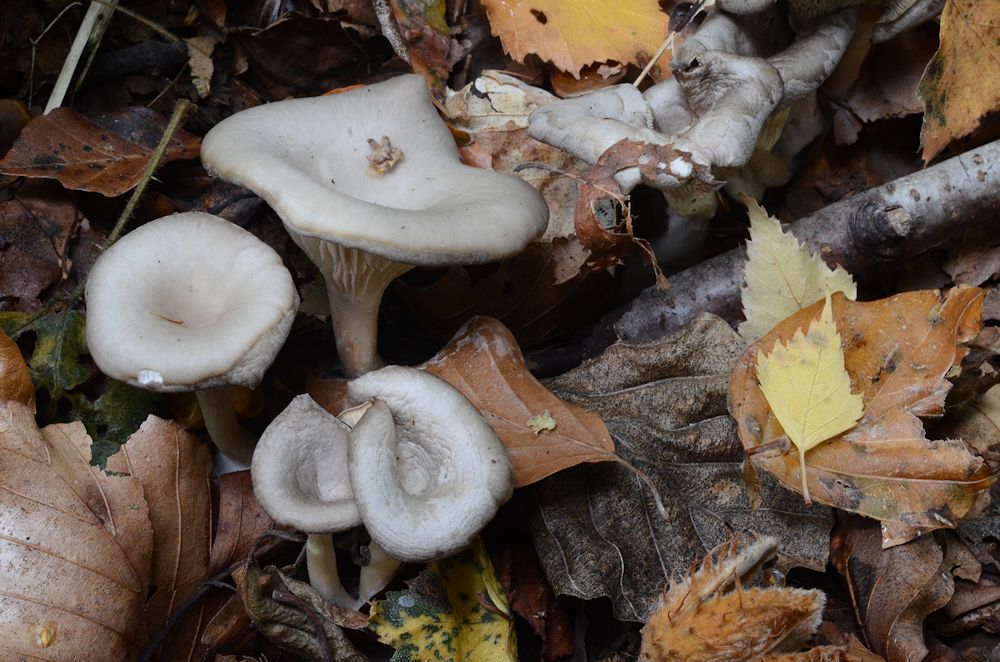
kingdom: Fungi
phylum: Basidiomycota
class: Agaricomycetes
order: Agaricales
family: Tricholomataceae
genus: Clitocybe
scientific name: Clitocybe phaeophthalma
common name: stinkende tragthat
